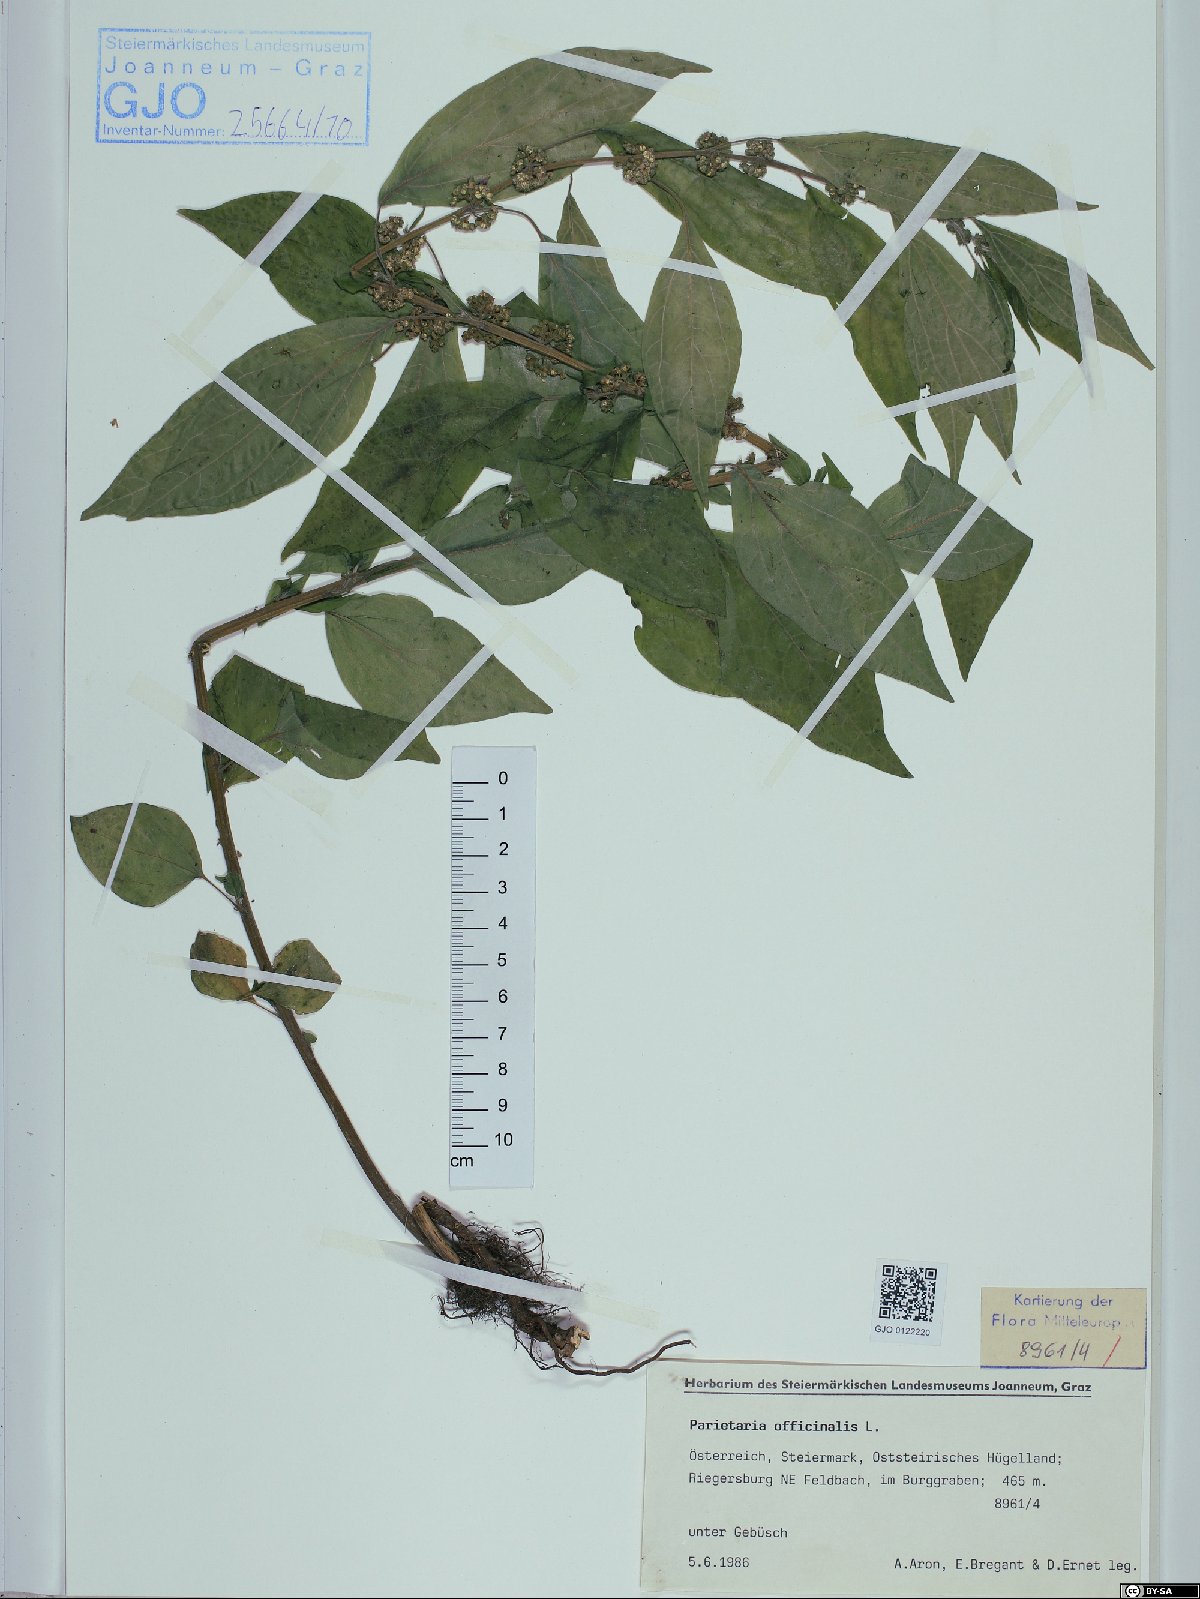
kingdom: Plantae
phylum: Tracheophyta
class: Magnoliopsida
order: Rosales
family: Urticaceae
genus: Parietaria
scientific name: Parietaria officinalis
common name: Eastern pellitory-of-the-wall
